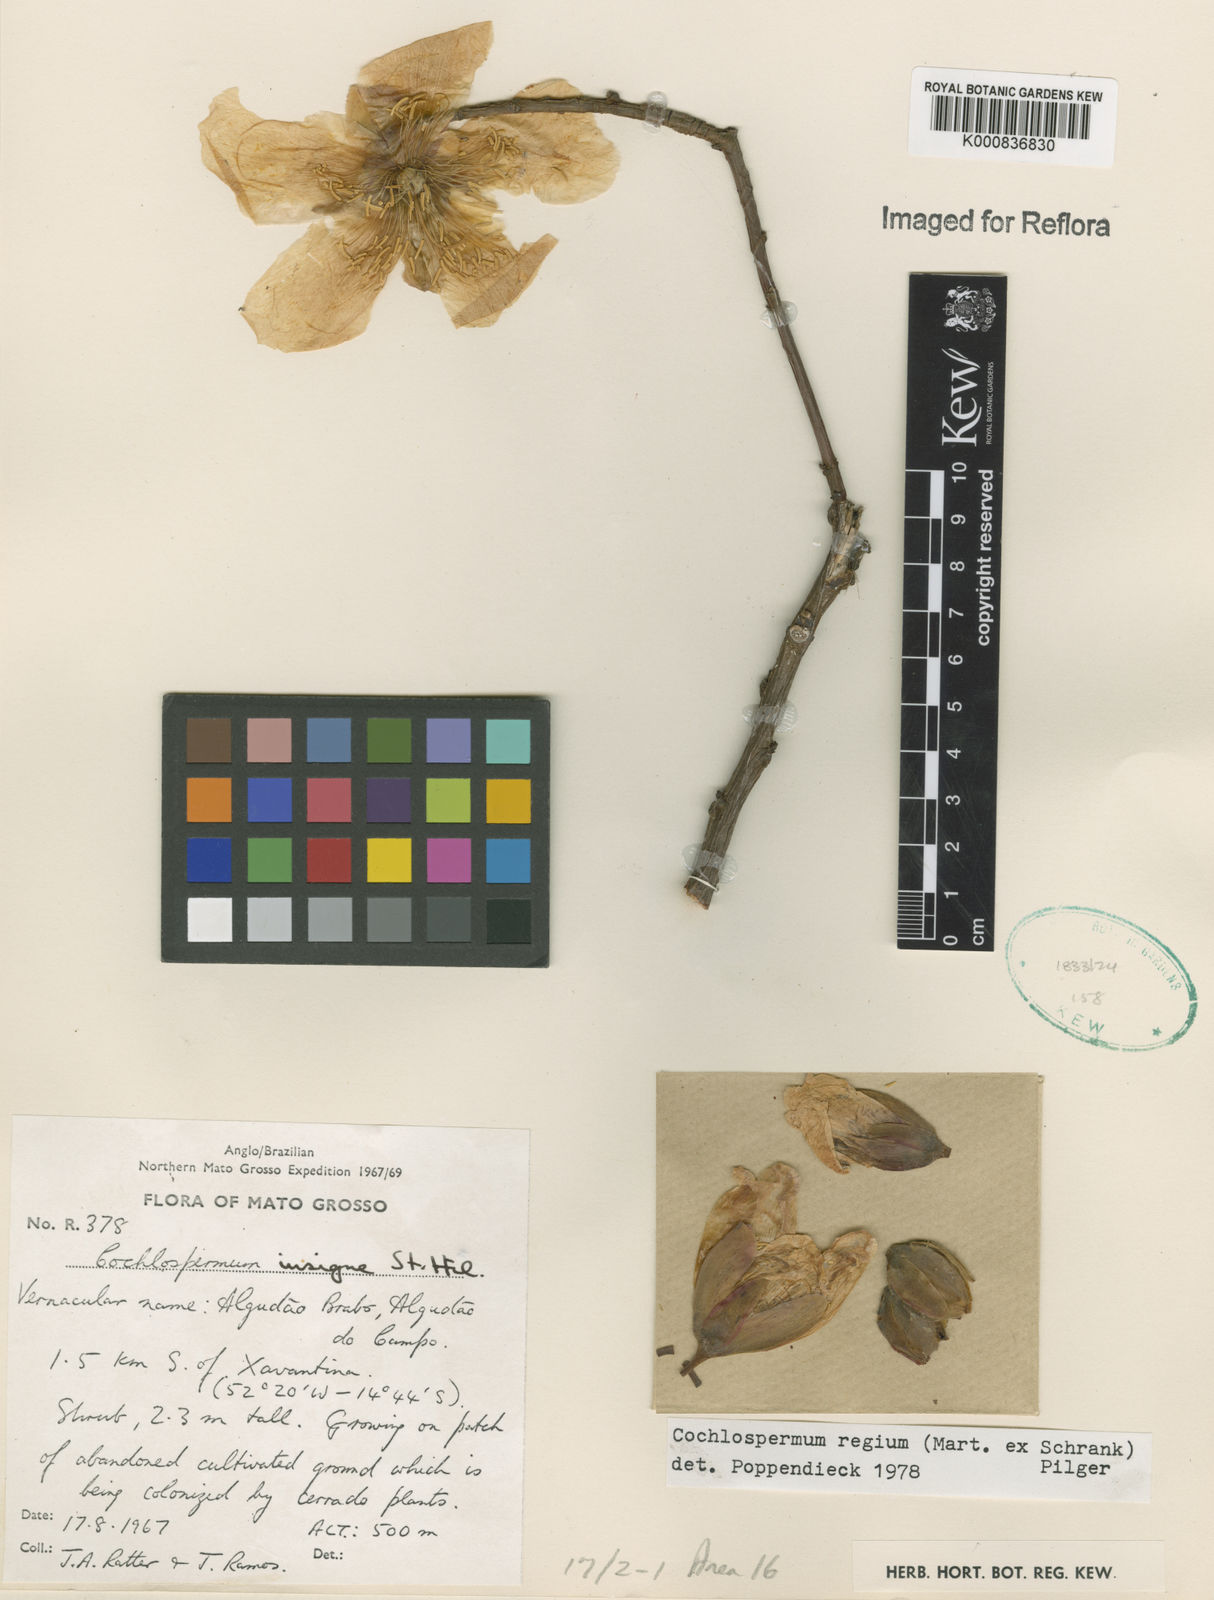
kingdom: Plantae
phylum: Tracheophyta
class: Magnoliopsida
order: Malvales
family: Cochlospermaceae
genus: Cochlospermum
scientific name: Cochlospermum regium
